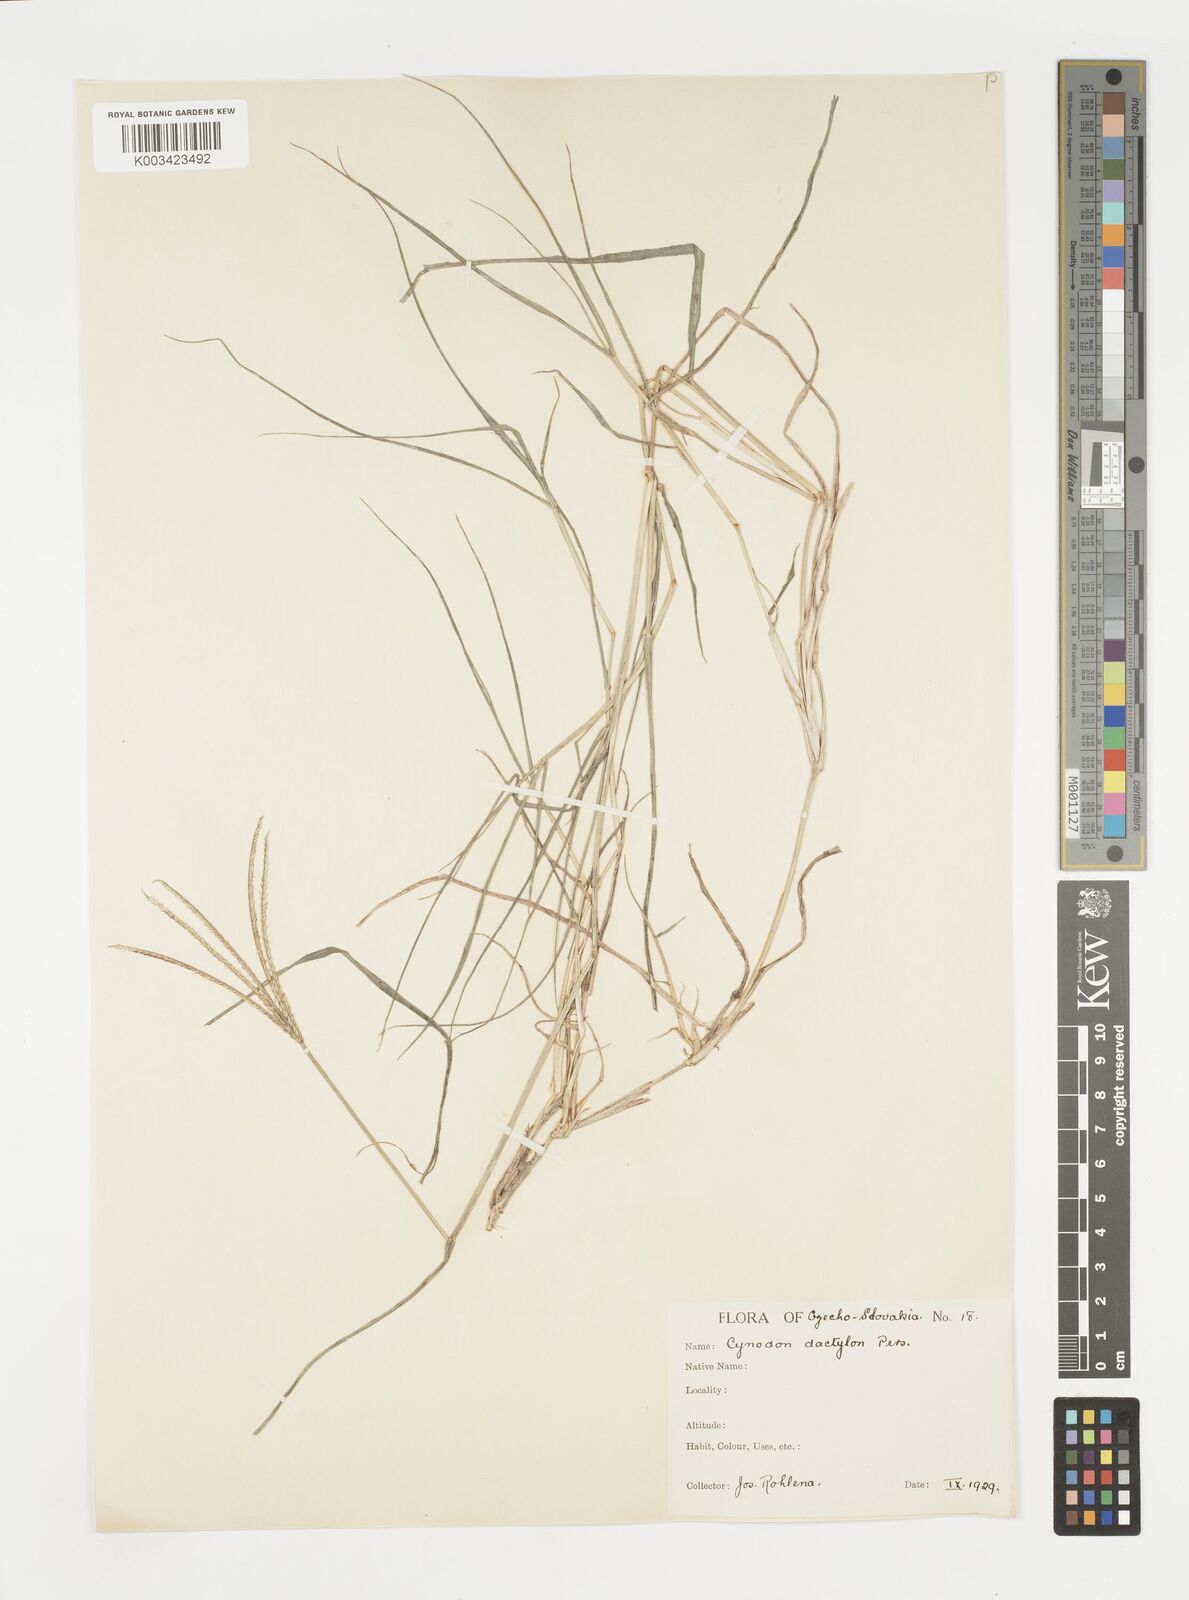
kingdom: Plantae
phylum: Tracheophyta
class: Liliopsida
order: Poales
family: Poaceae
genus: Cynodon
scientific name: Cynodon dactylon
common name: Bermuda grass
